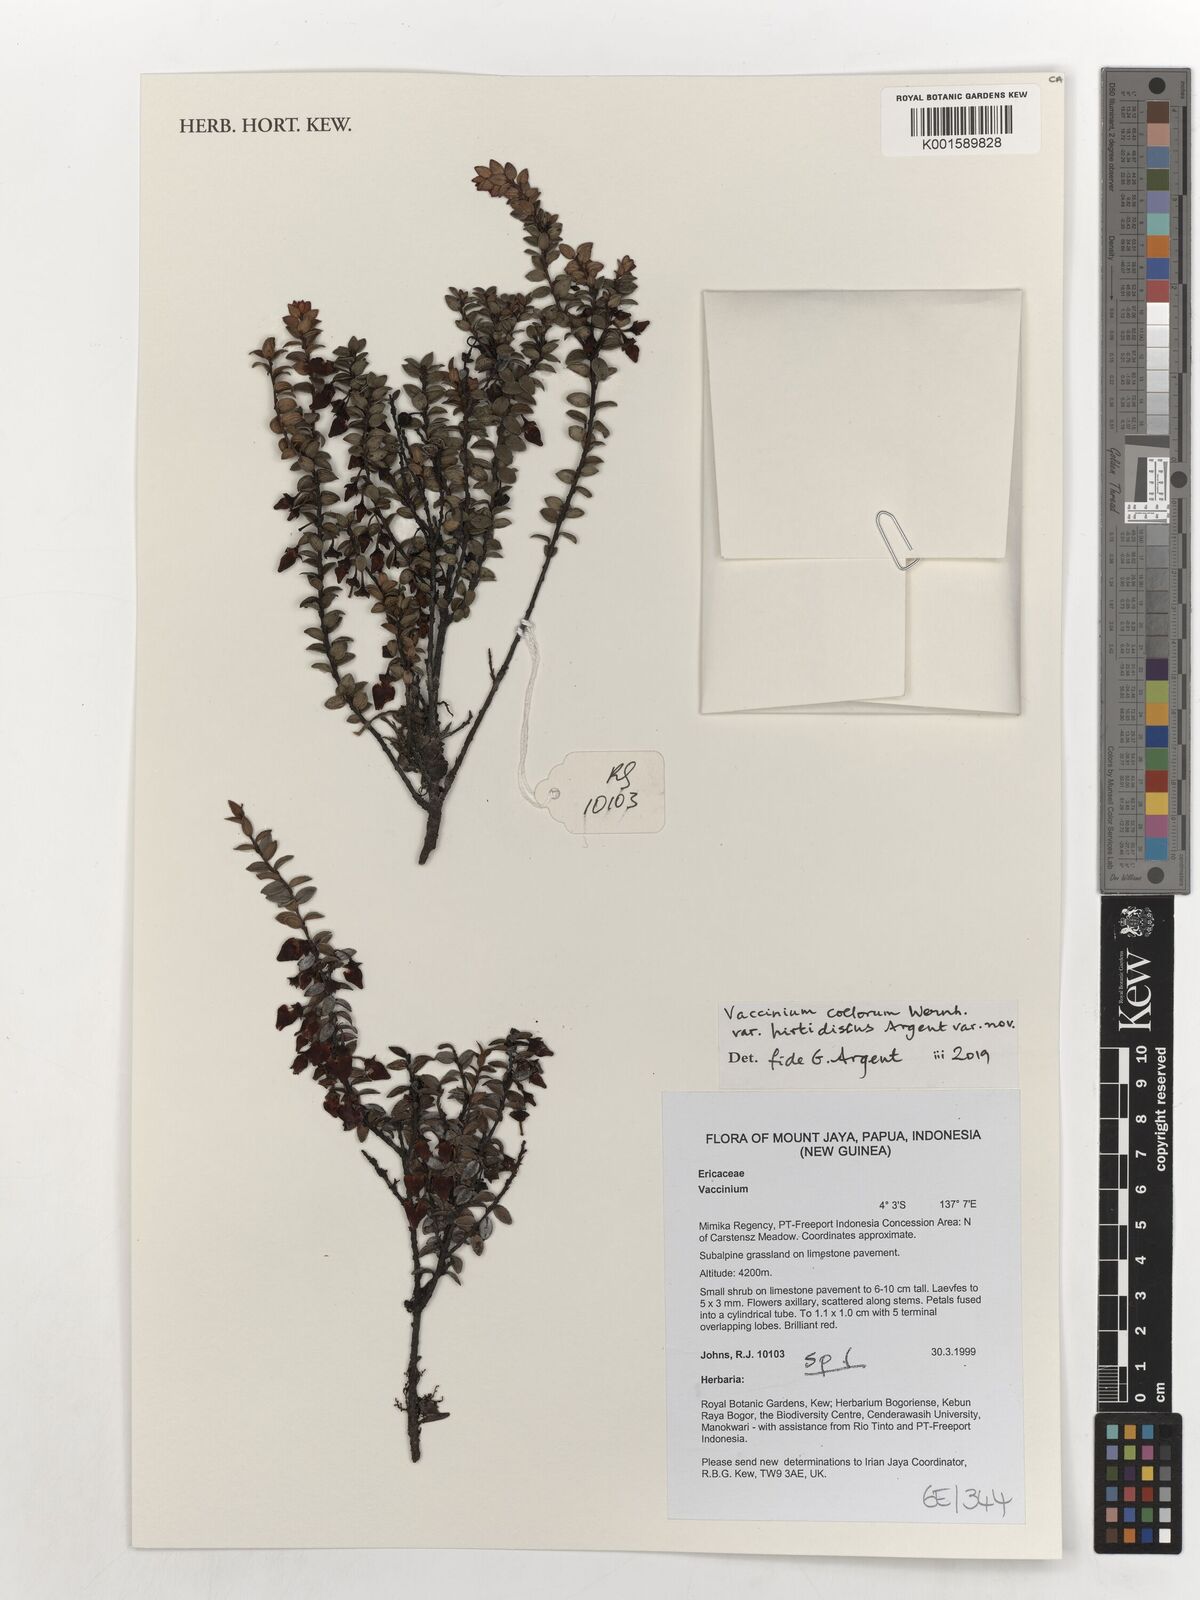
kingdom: Plantae
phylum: Tracheophyta
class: Magnoliopsida
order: Ericales
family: Ericaceae
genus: Vaccinium
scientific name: Vaccinium coelorum
